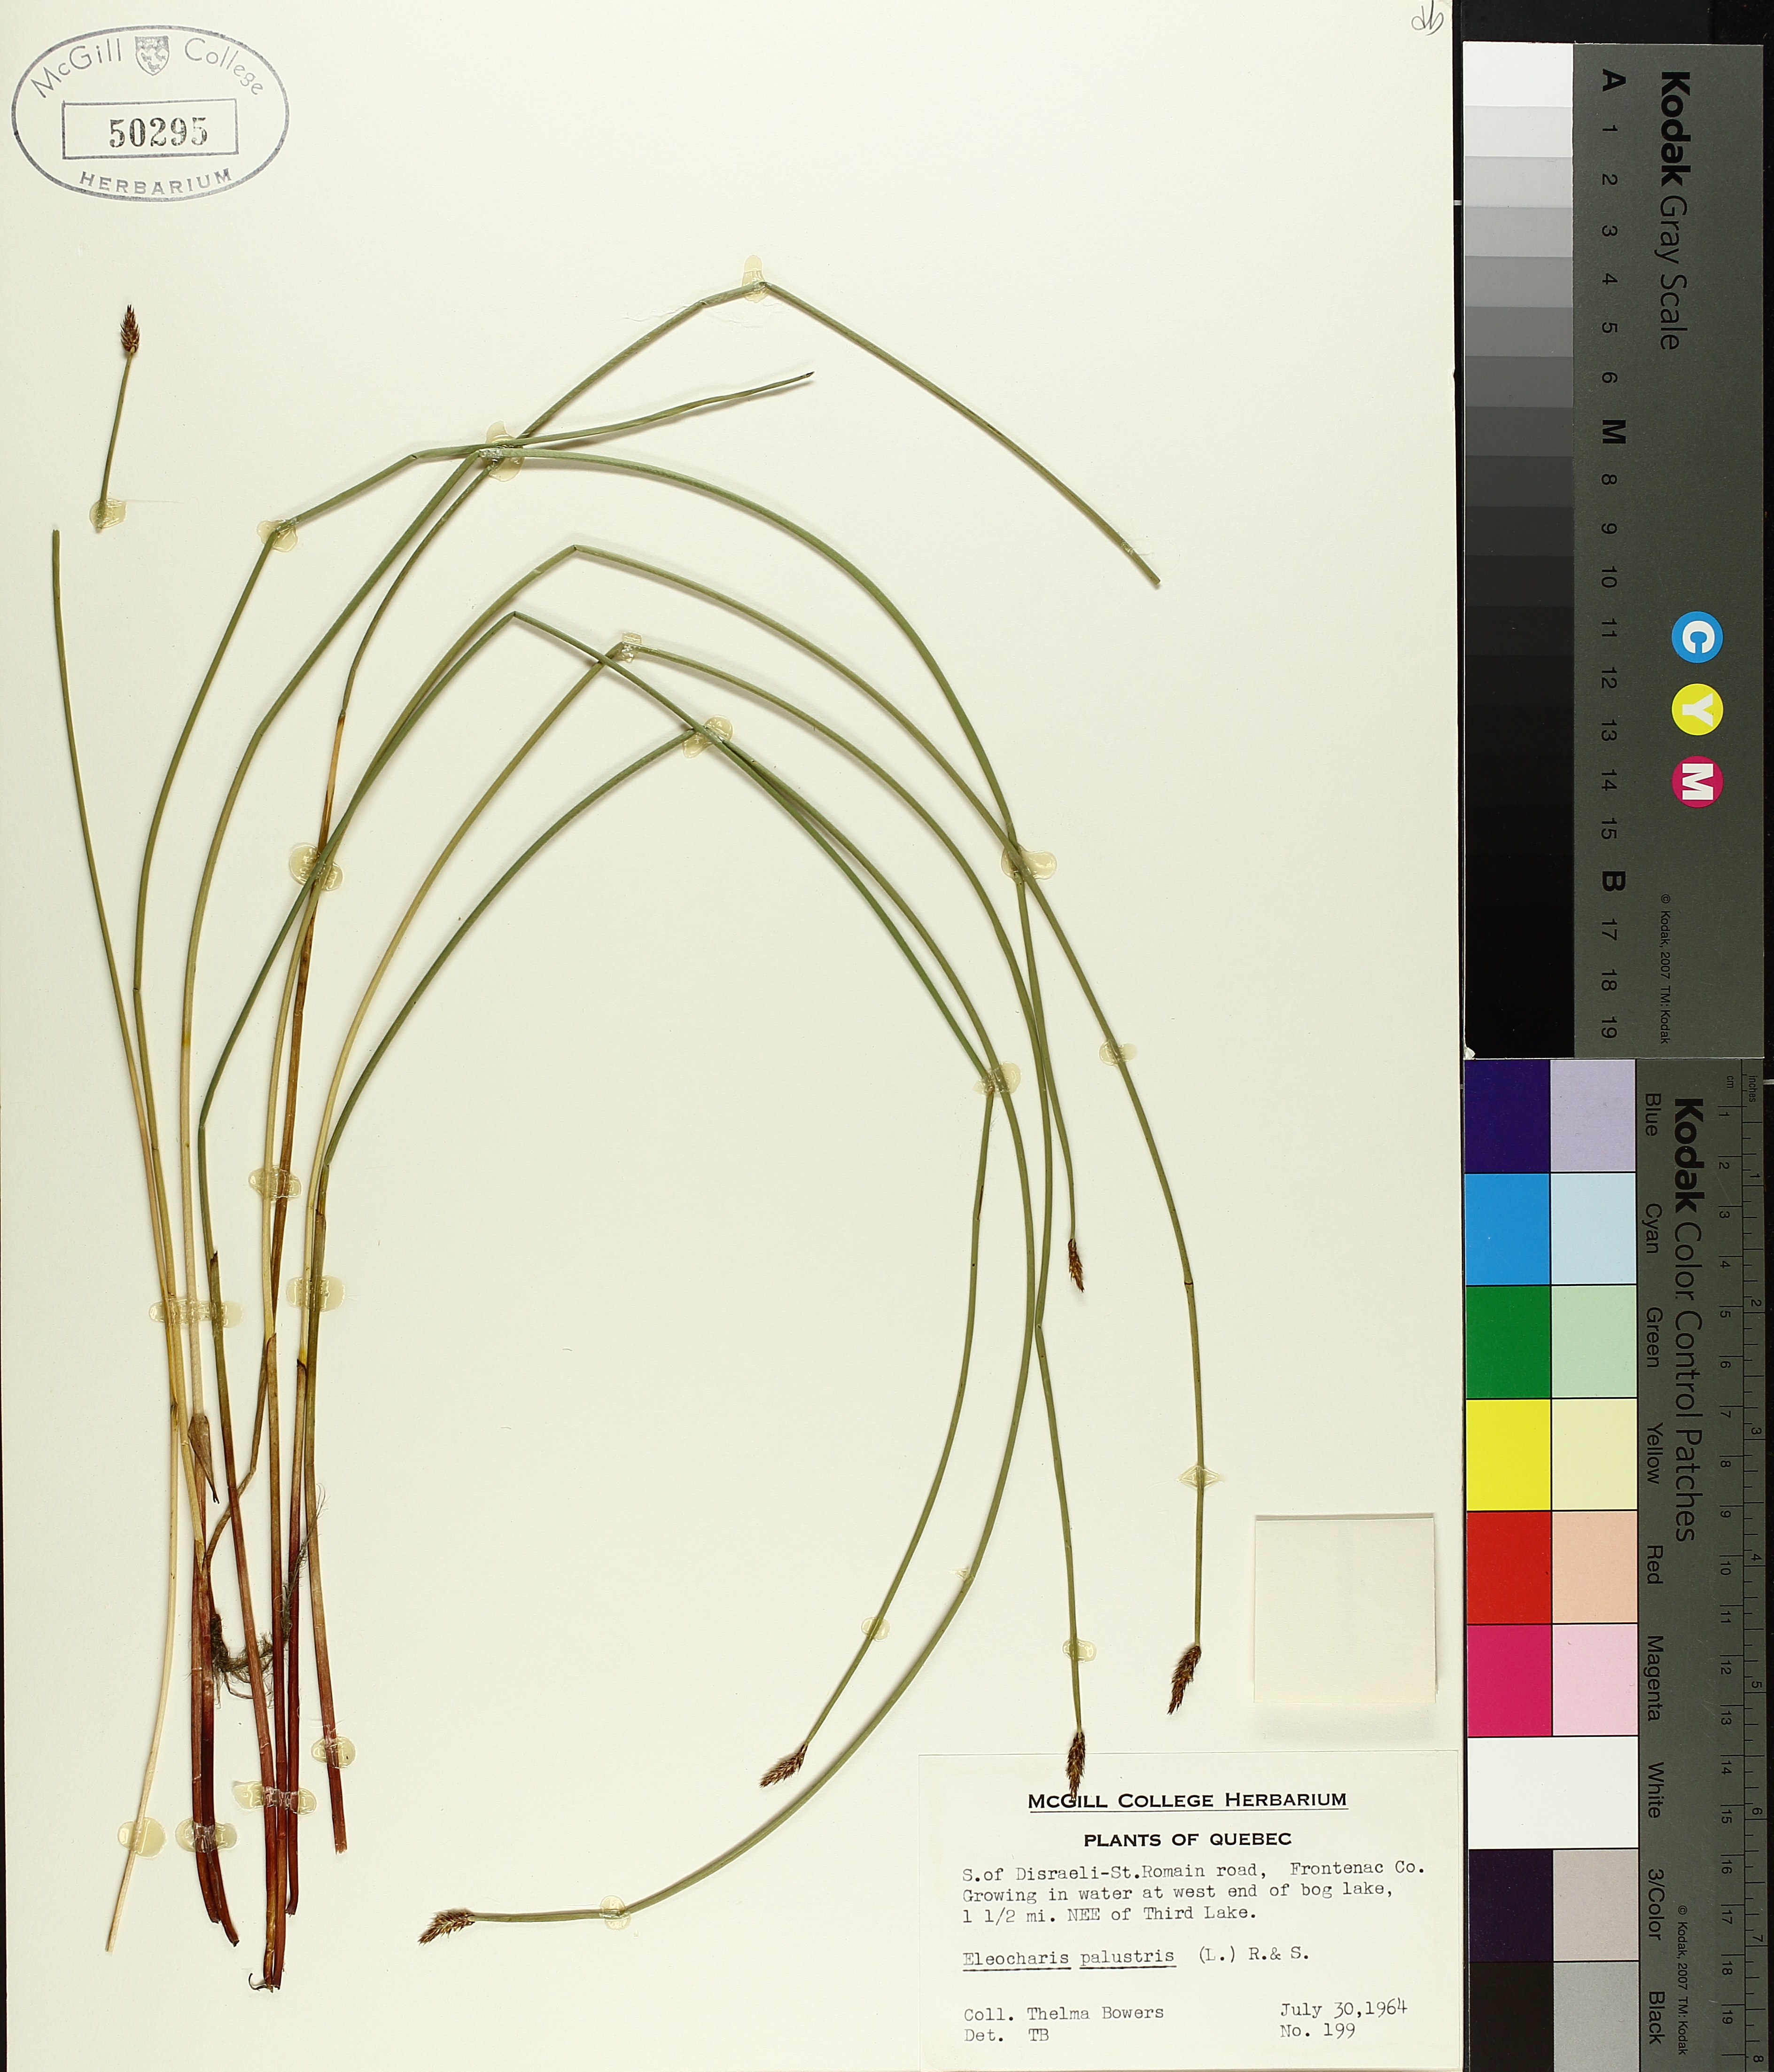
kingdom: Plantae
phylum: Tracheophyta
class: Liliopsida
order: Poales
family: Cyperaceae
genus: Eleocharis
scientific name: Eleocharis palustris
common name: Common spike-rush
